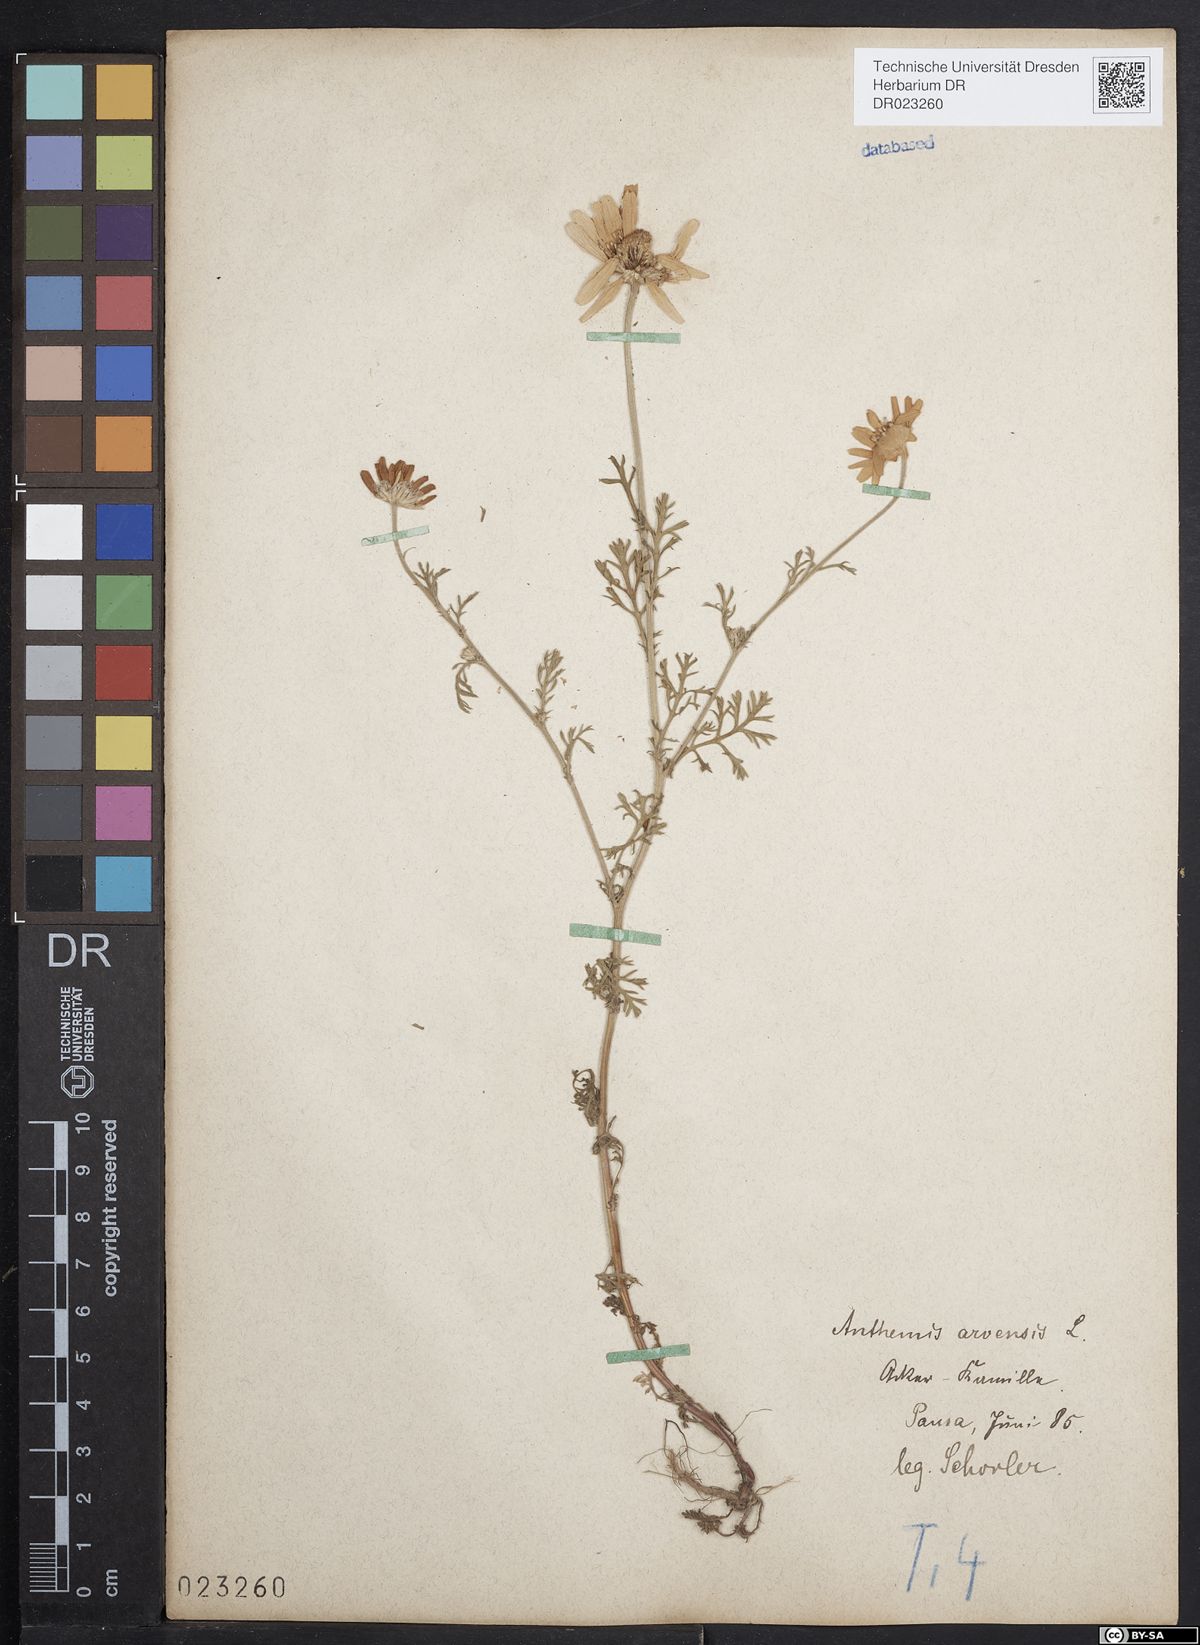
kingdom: Plantae
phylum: Tracheophyta
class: Magnoliopsida
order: Asterales
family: Asteraceae
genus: Anthemis
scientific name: Anthemis arvensis
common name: Corn chamomile
